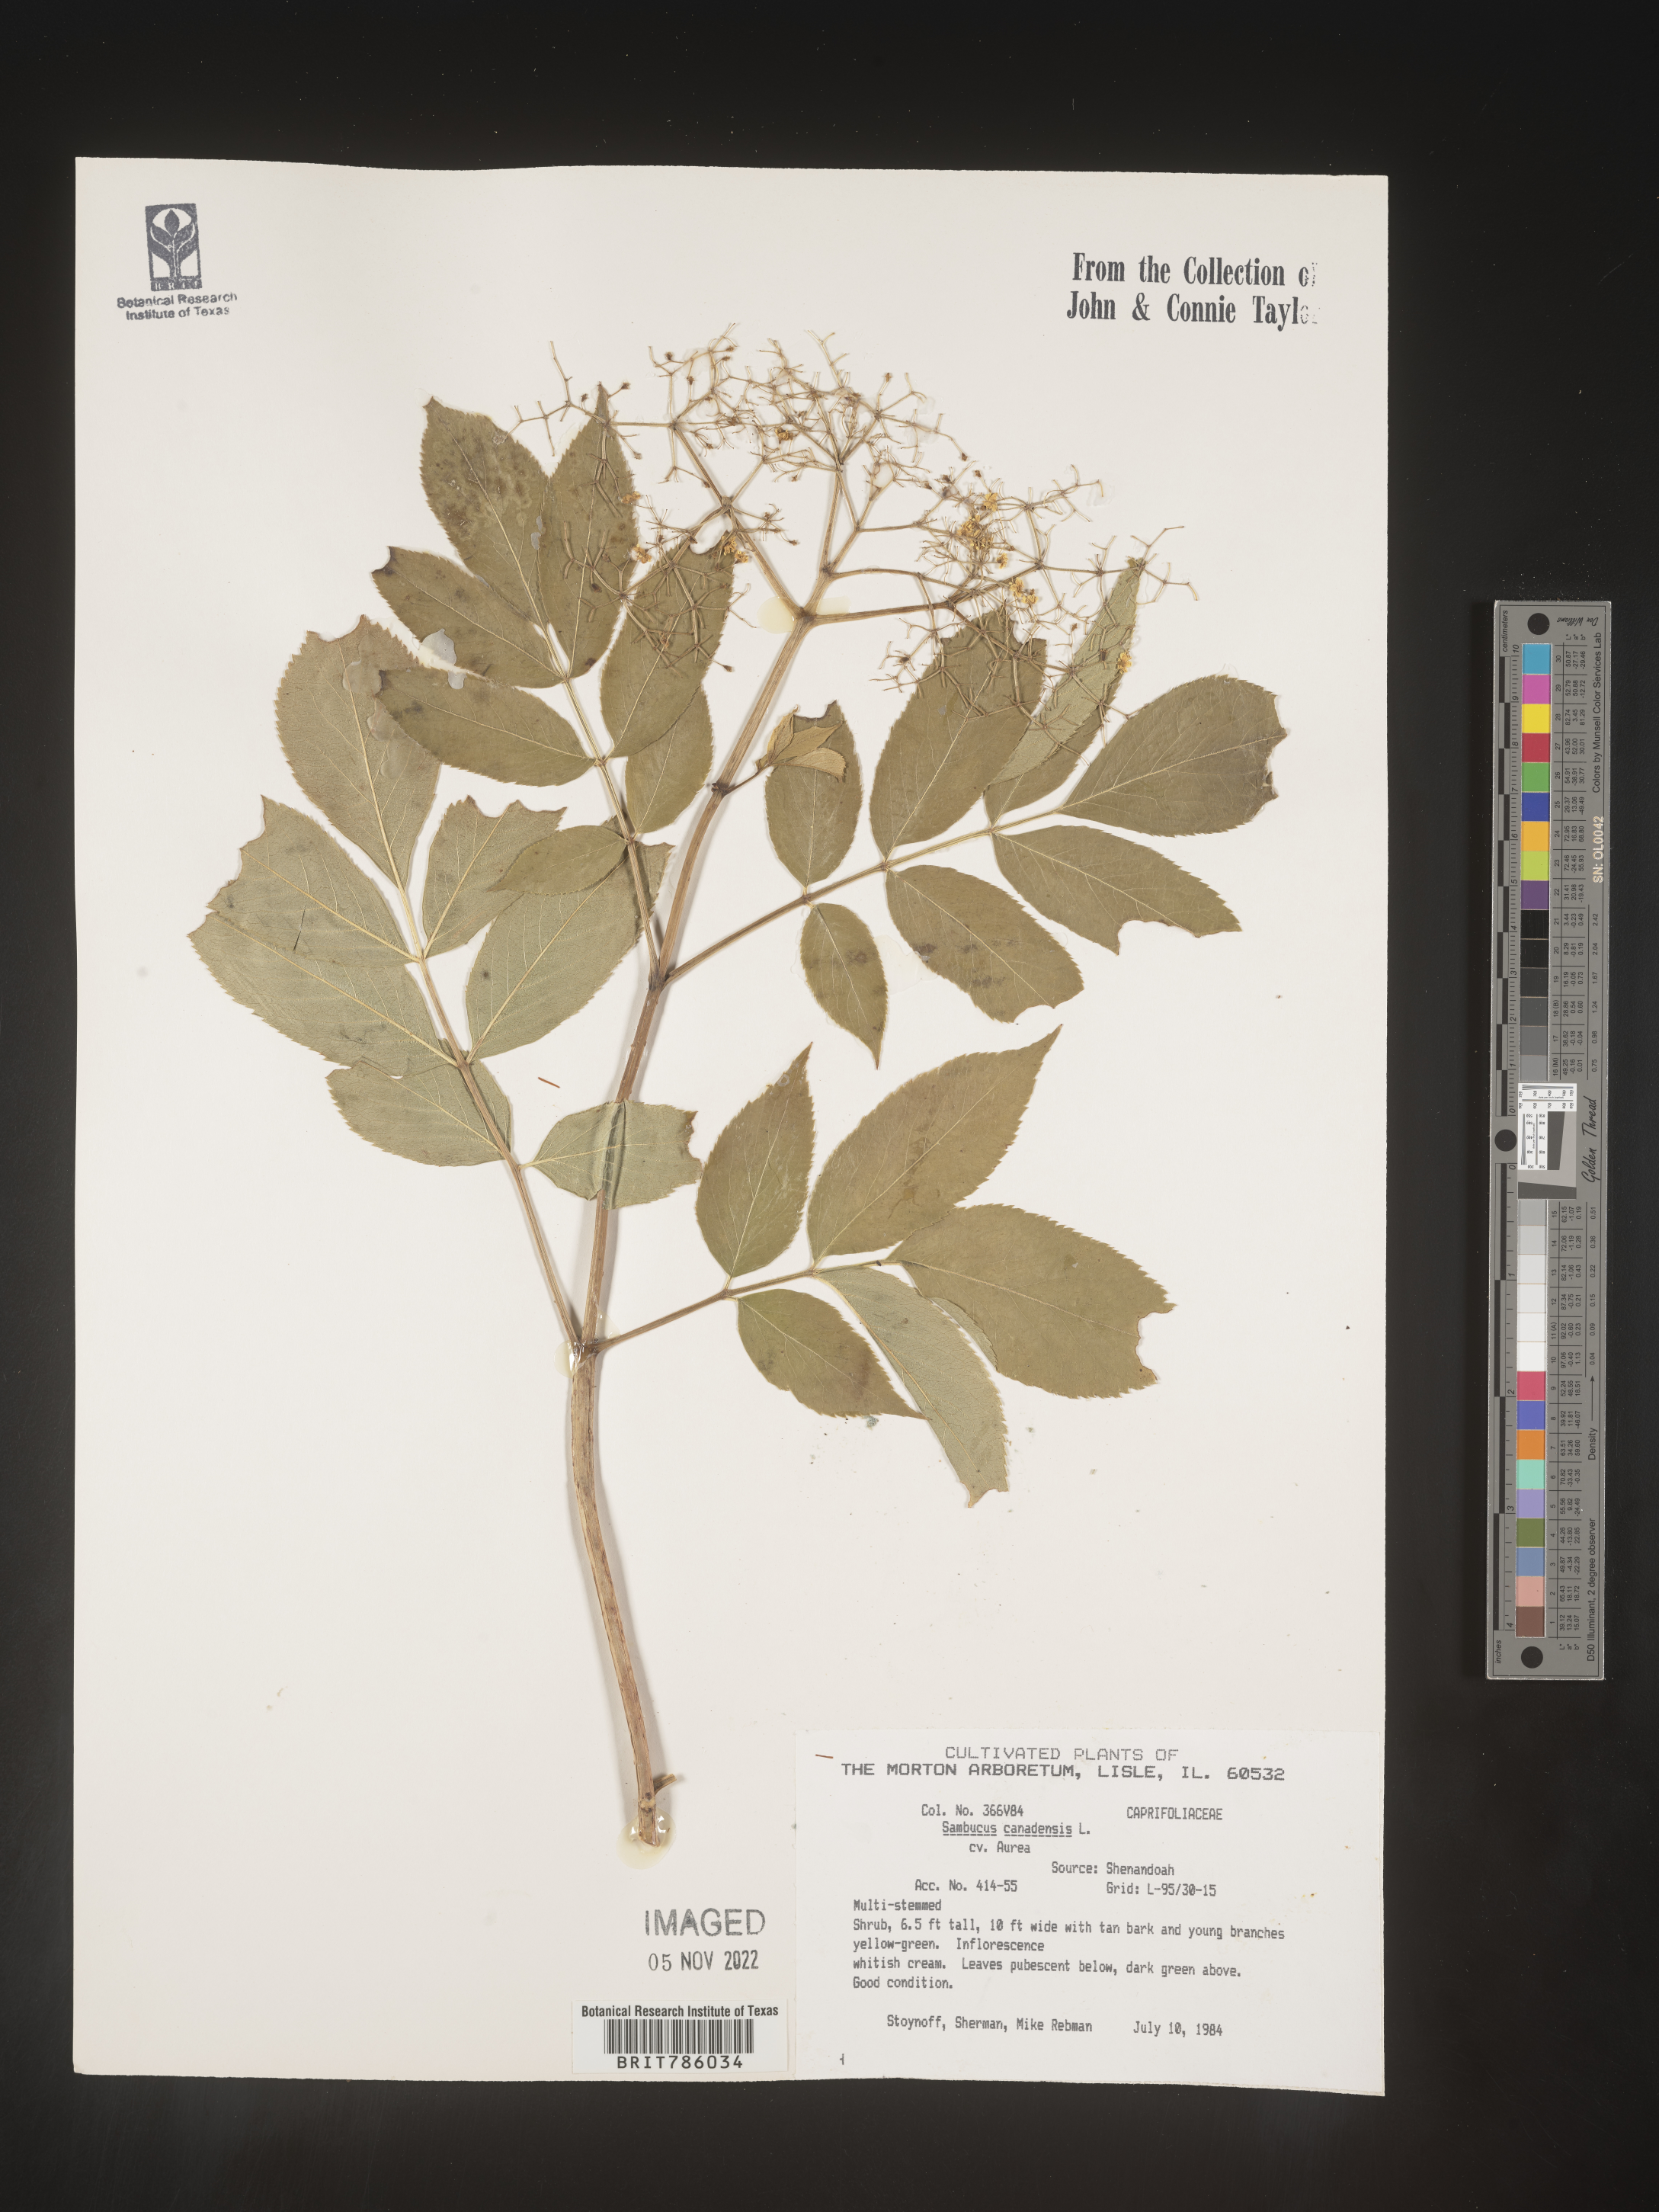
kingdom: Plantae
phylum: Tracheophyta
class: Magnoliopsida
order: Dipsacales
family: Viburnaceae
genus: Sambucus
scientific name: Sambucus
